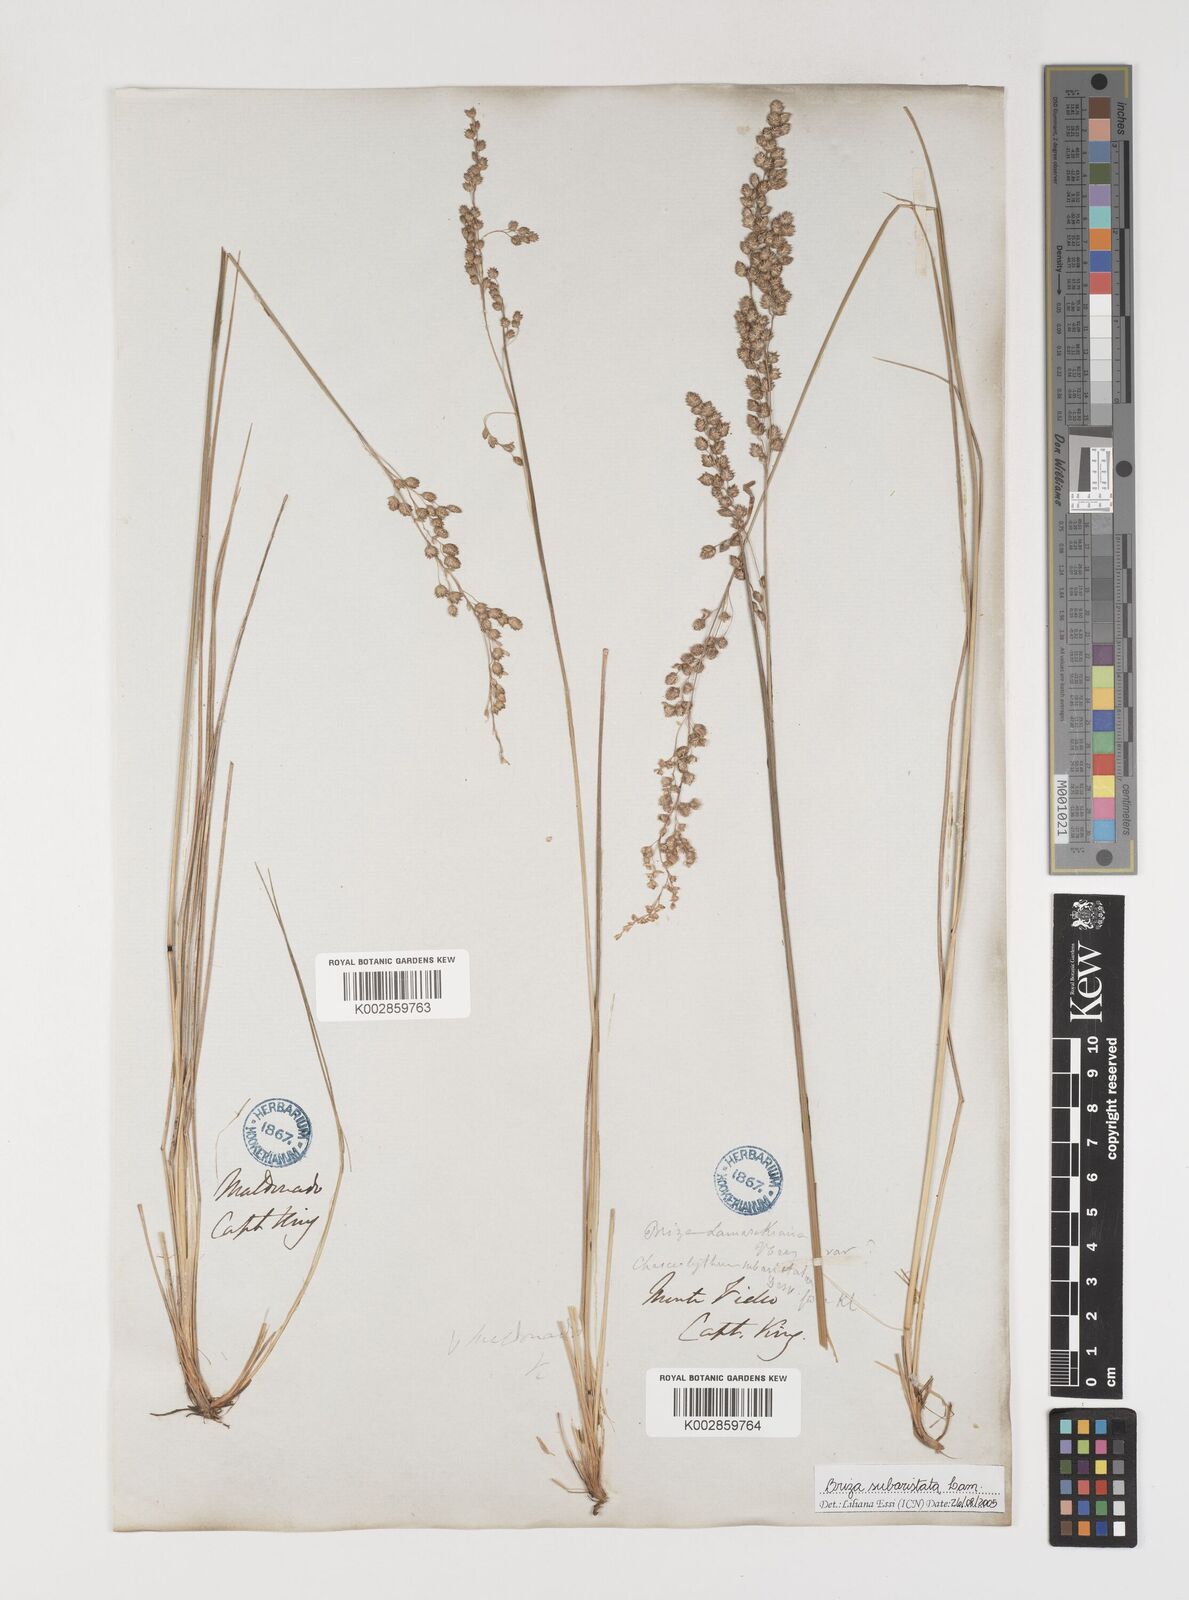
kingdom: Plantae
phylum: Tracheophyta
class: Liliopsida
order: Poales
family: Poaceae
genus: Chascolytrum
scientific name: Chascolytrum subaristatum
